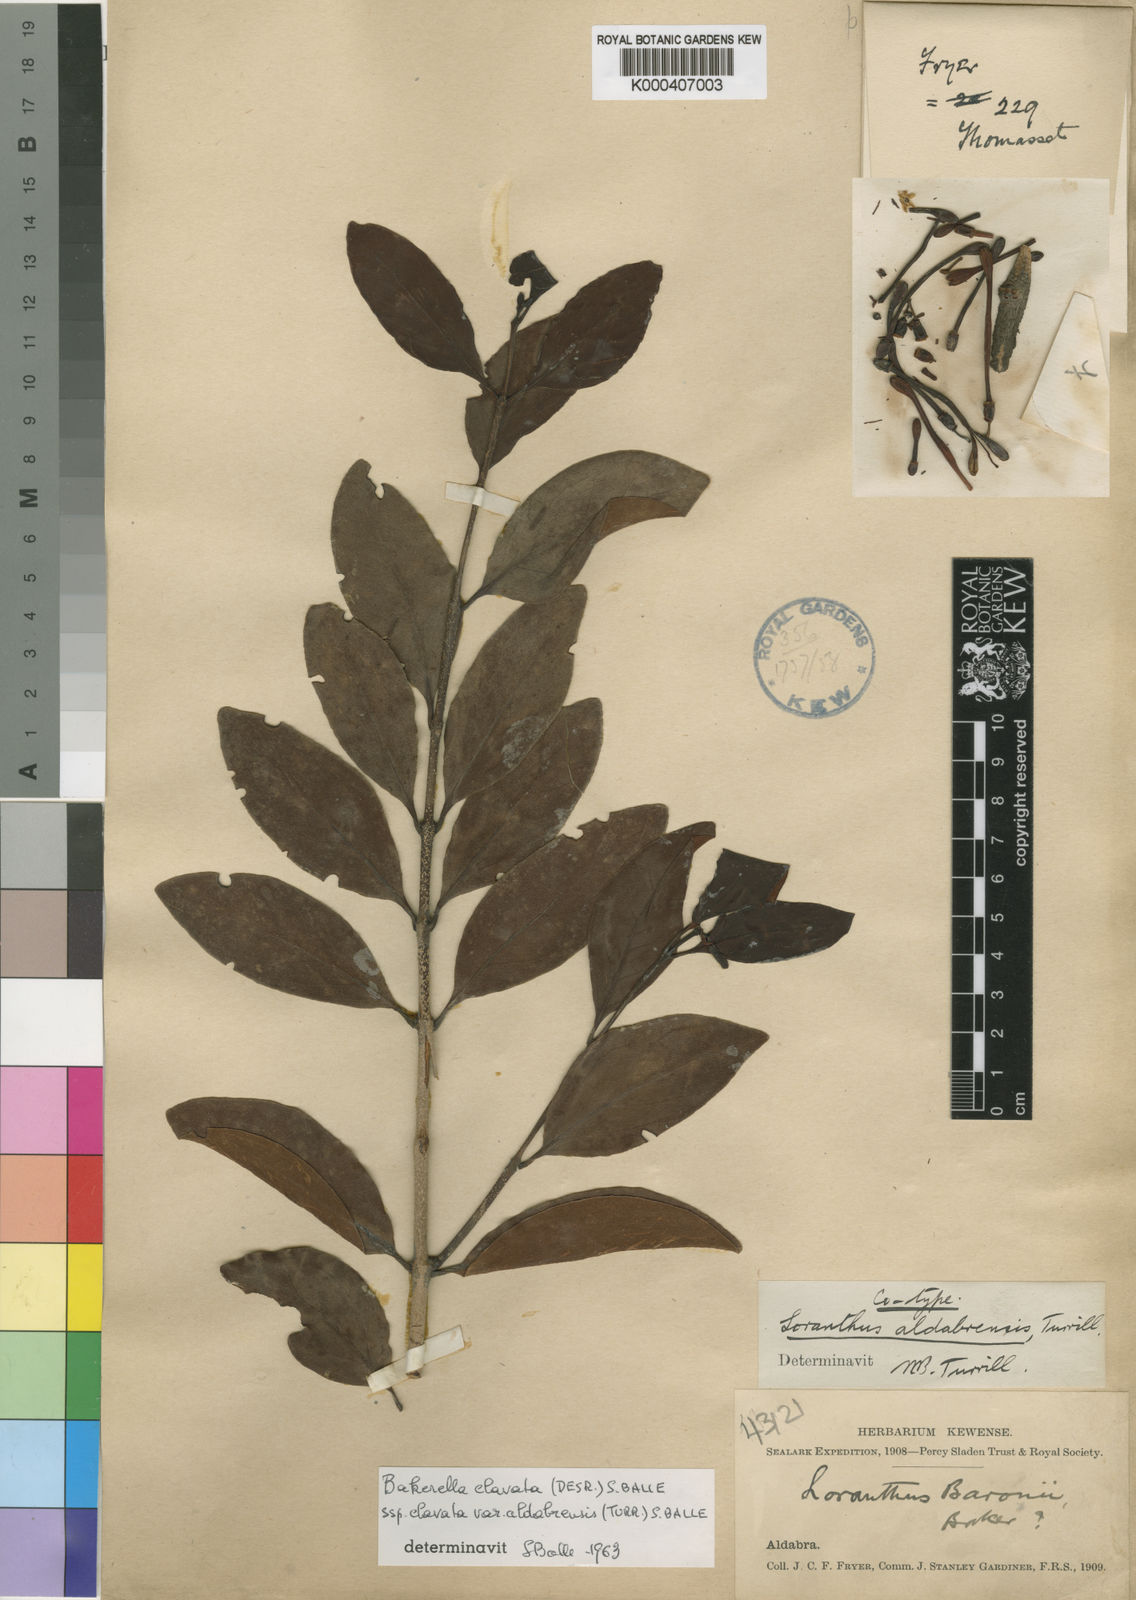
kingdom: Plantae
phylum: Tracheophyta
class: Magnoliopsida
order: Santalales
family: Loranthaceae
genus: Bakerella
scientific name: Bakerella clavata
